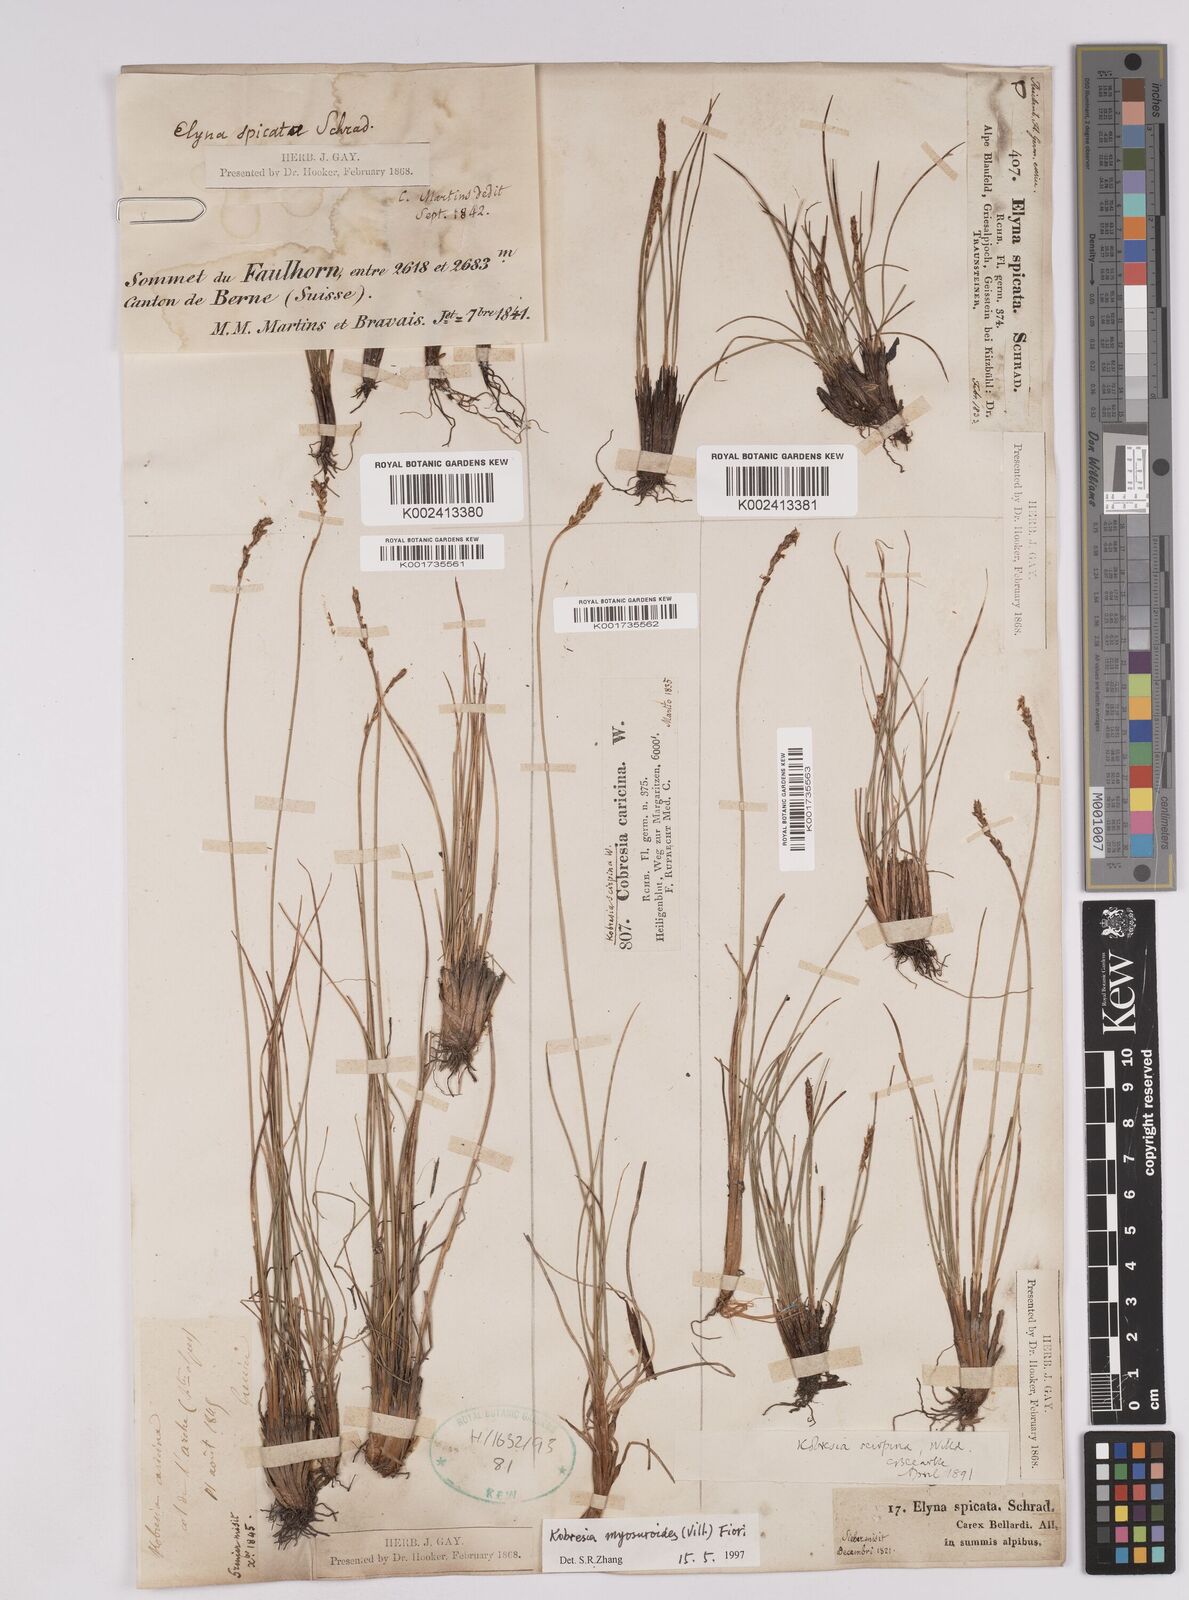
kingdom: Plantae
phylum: Tracheophyta
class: Liliopsida
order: Poales
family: Cyperaceae
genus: Carex
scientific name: Carex myosuroides
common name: Bellard's bog sedge
